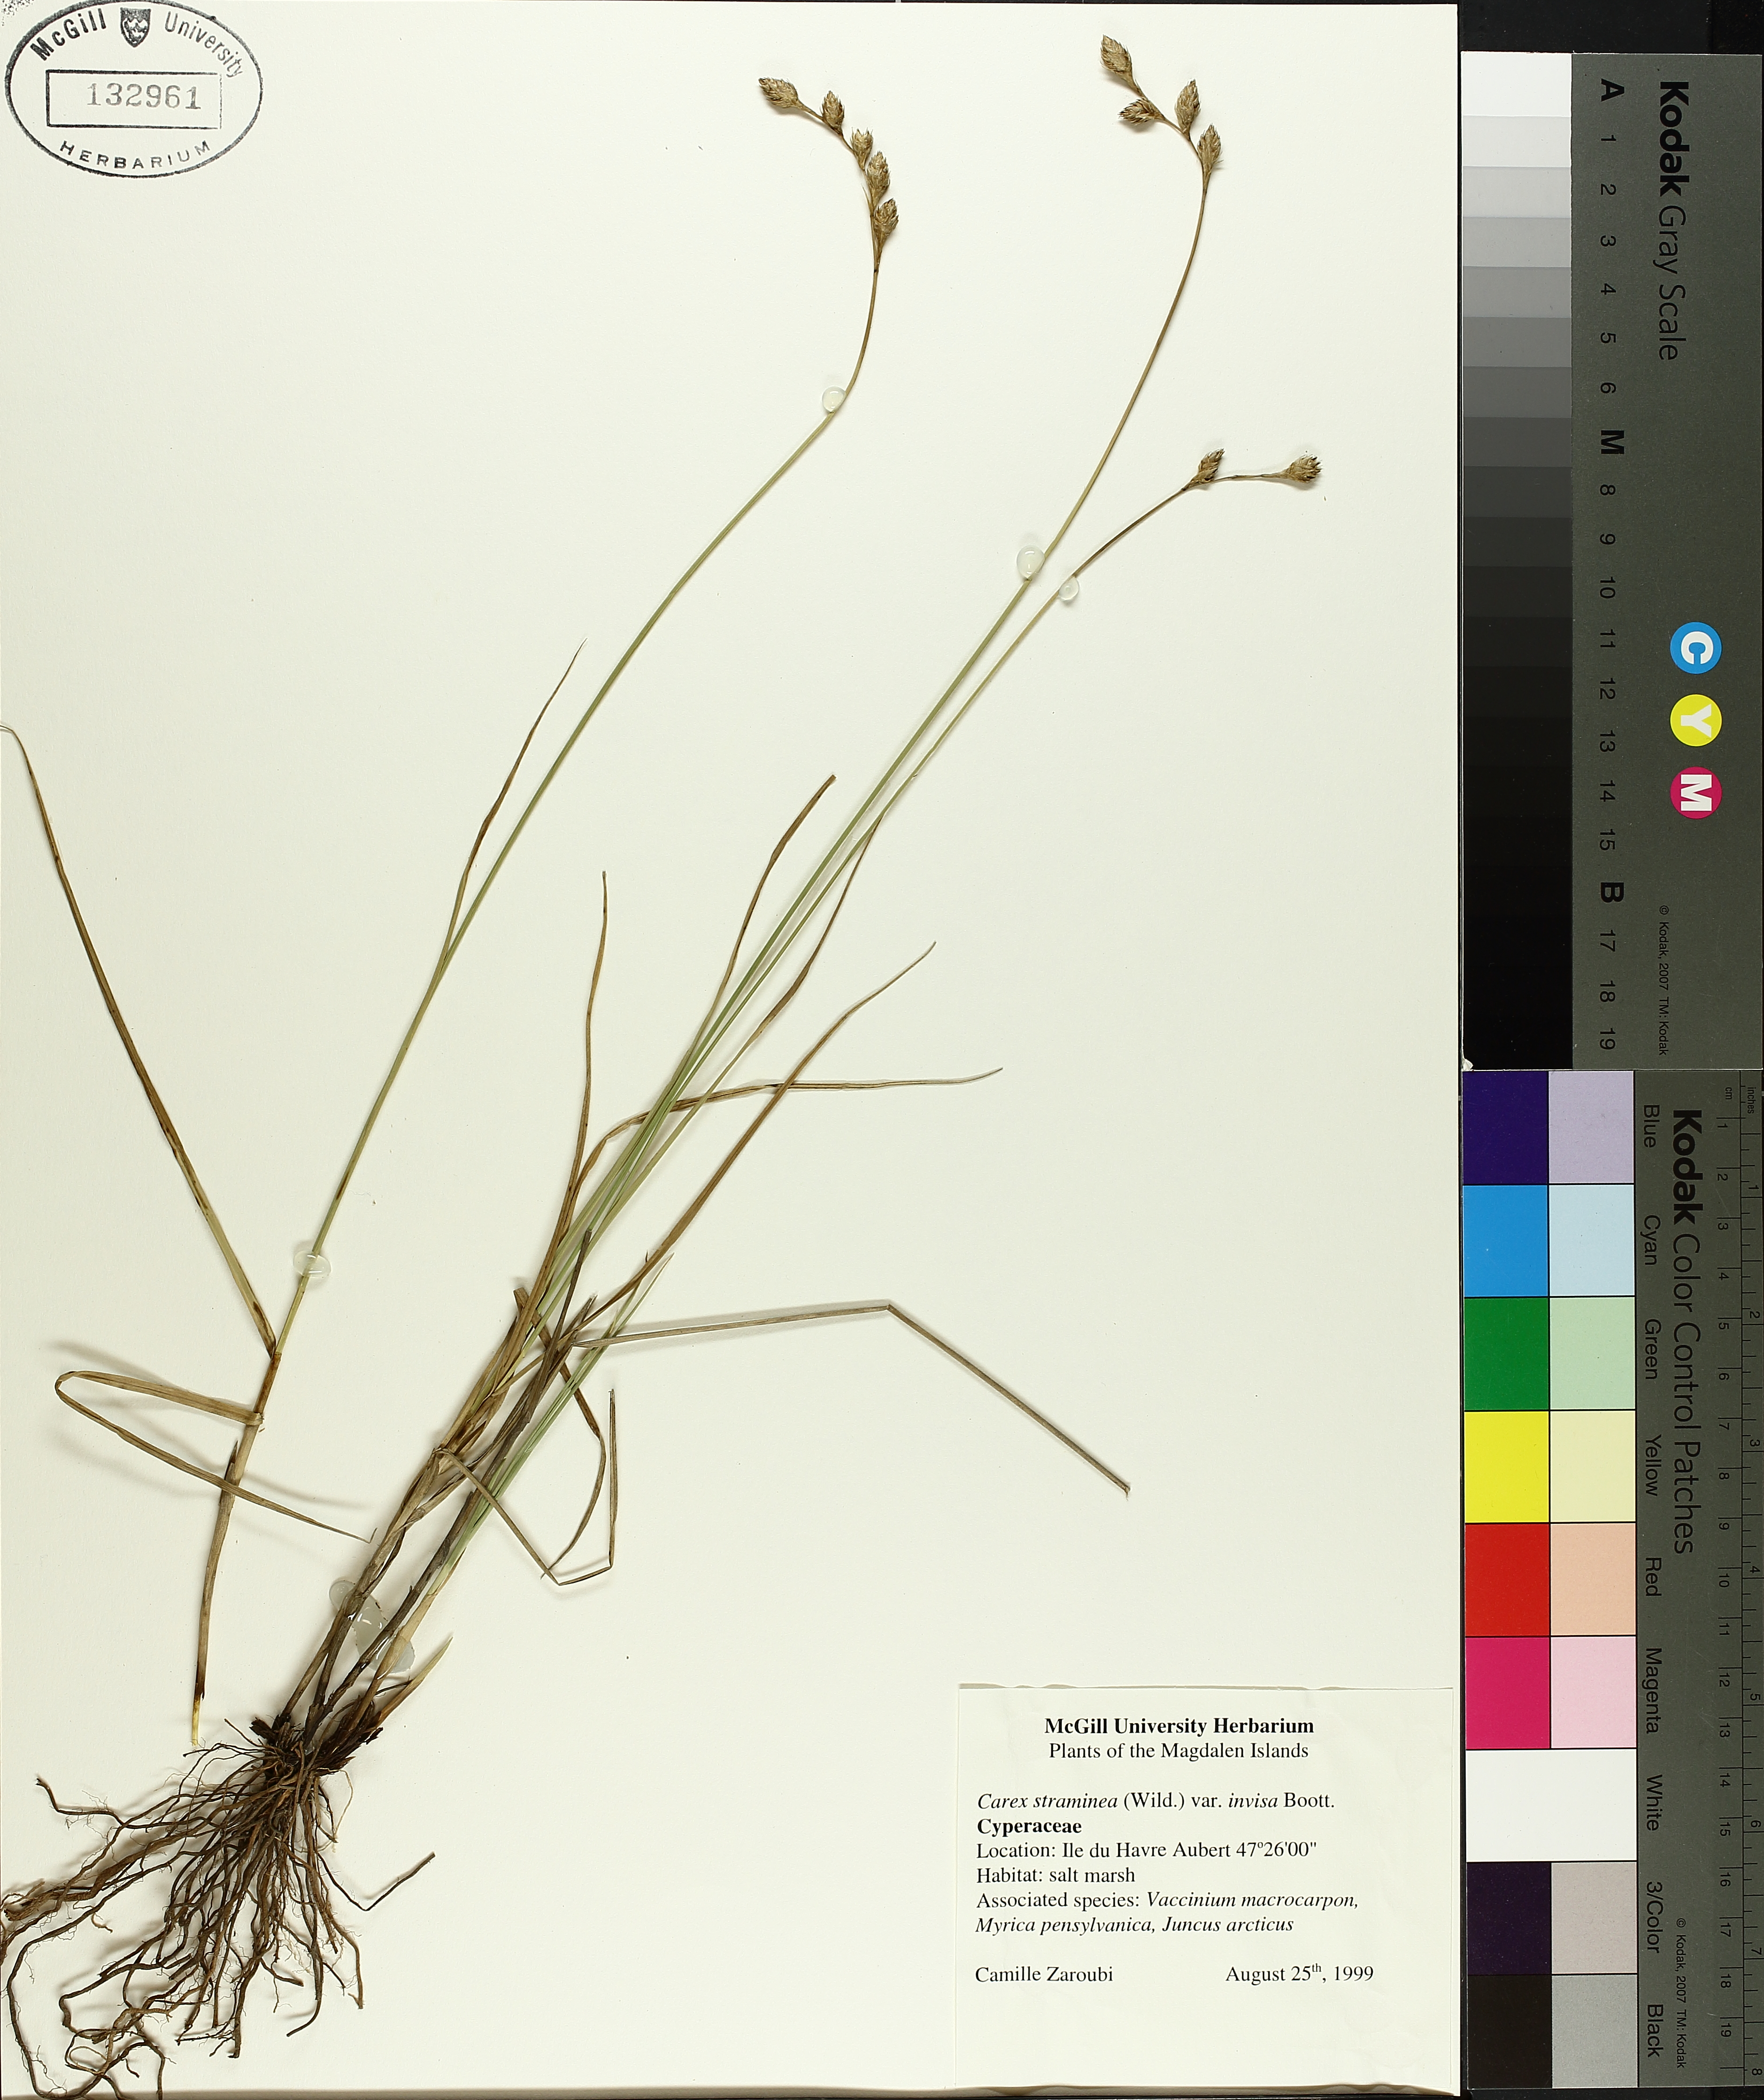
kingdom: Plantae
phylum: Tracheophyta
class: Liliopsida
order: Poales
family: Cyperaceae
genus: Carex
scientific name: Carex hormathodes
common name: Marsh straw sedge
